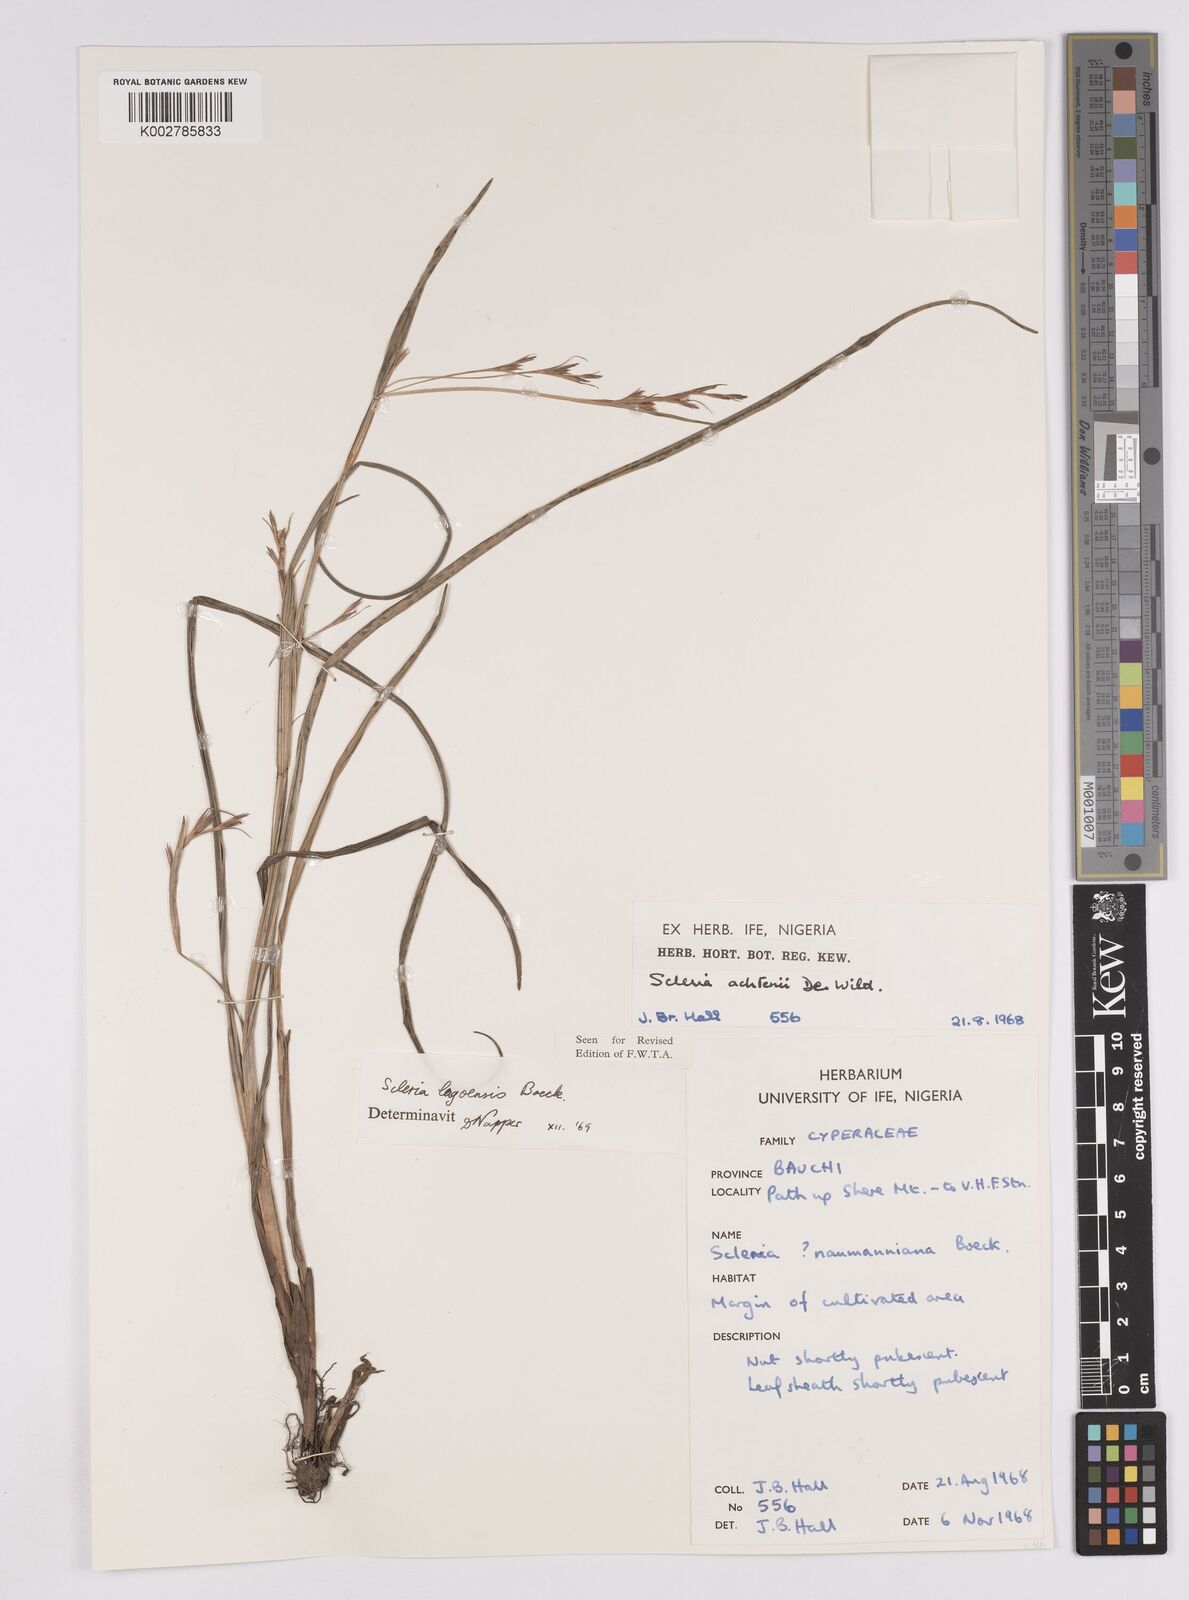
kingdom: Plantae
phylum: Tracheophyta
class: Liliopsida
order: Poales
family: Cyperaceae
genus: Scleria
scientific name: Scleria lagoensis
